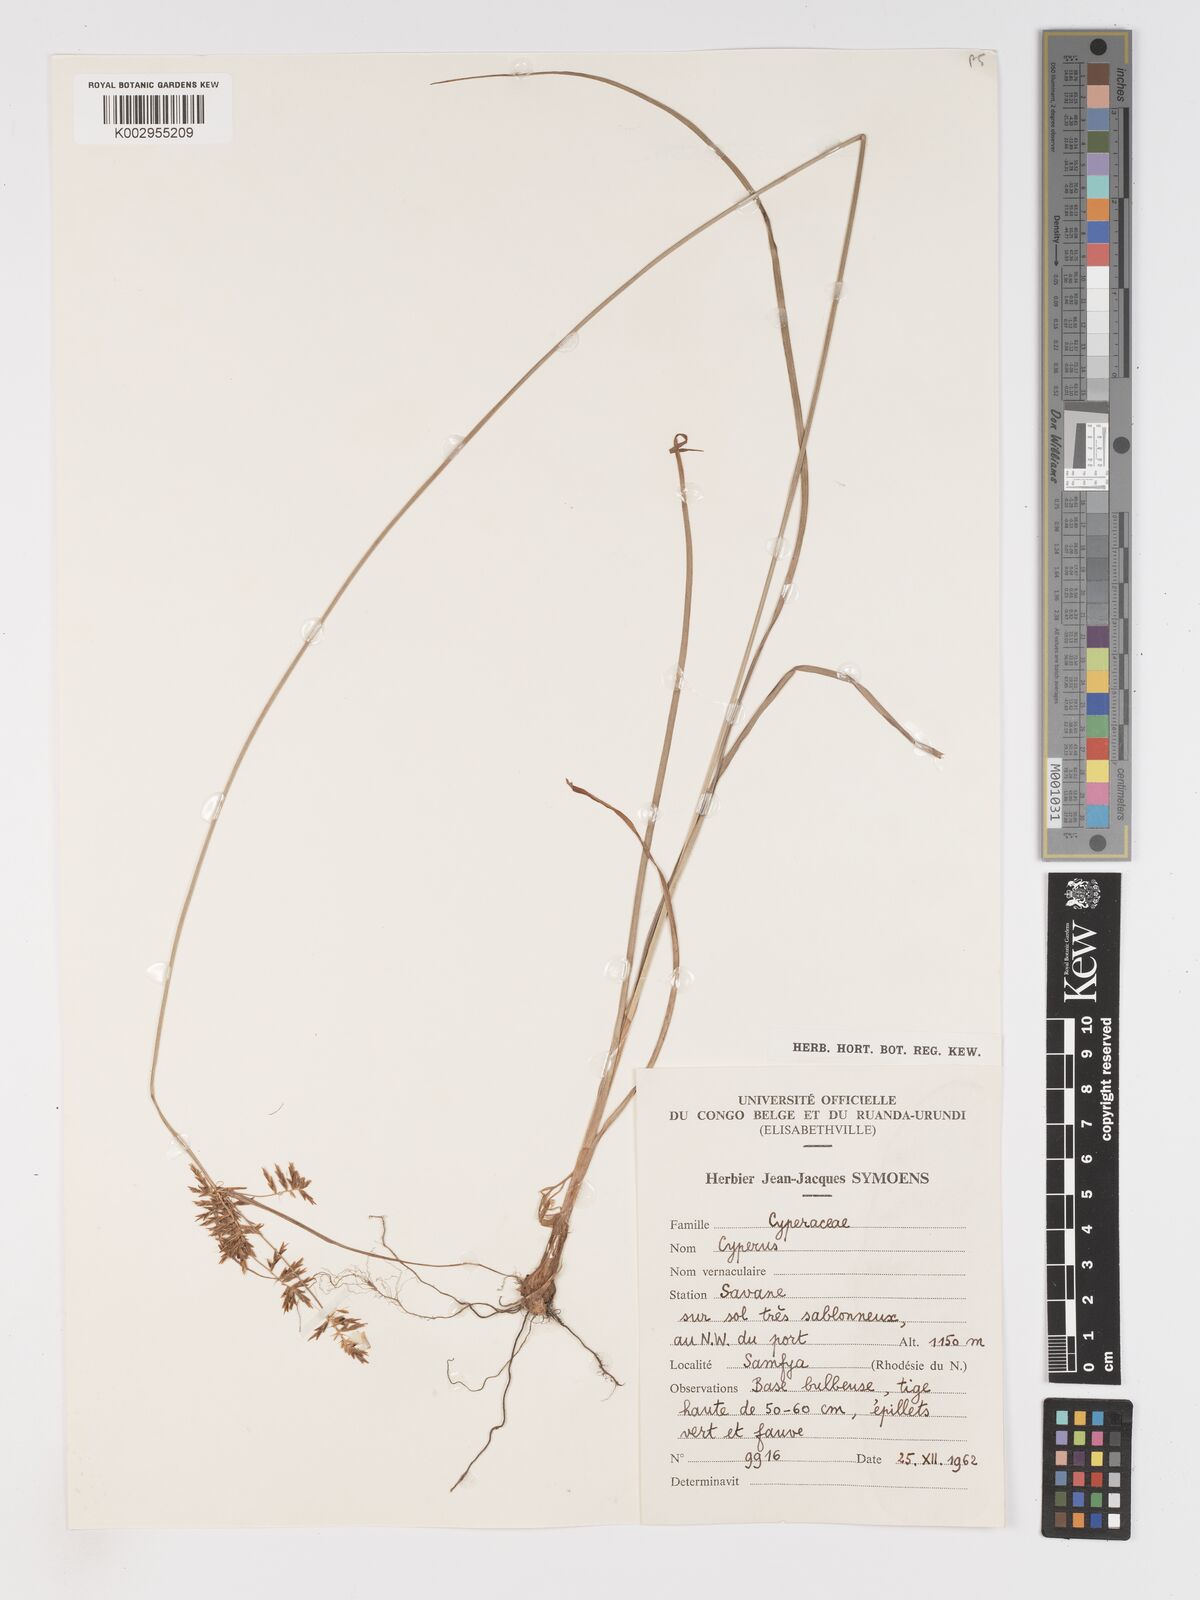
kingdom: Plantae
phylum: Tracheophyta
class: Liliopsida
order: Poales
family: Cyperaceae
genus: Cyperus
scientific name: Cyperus
